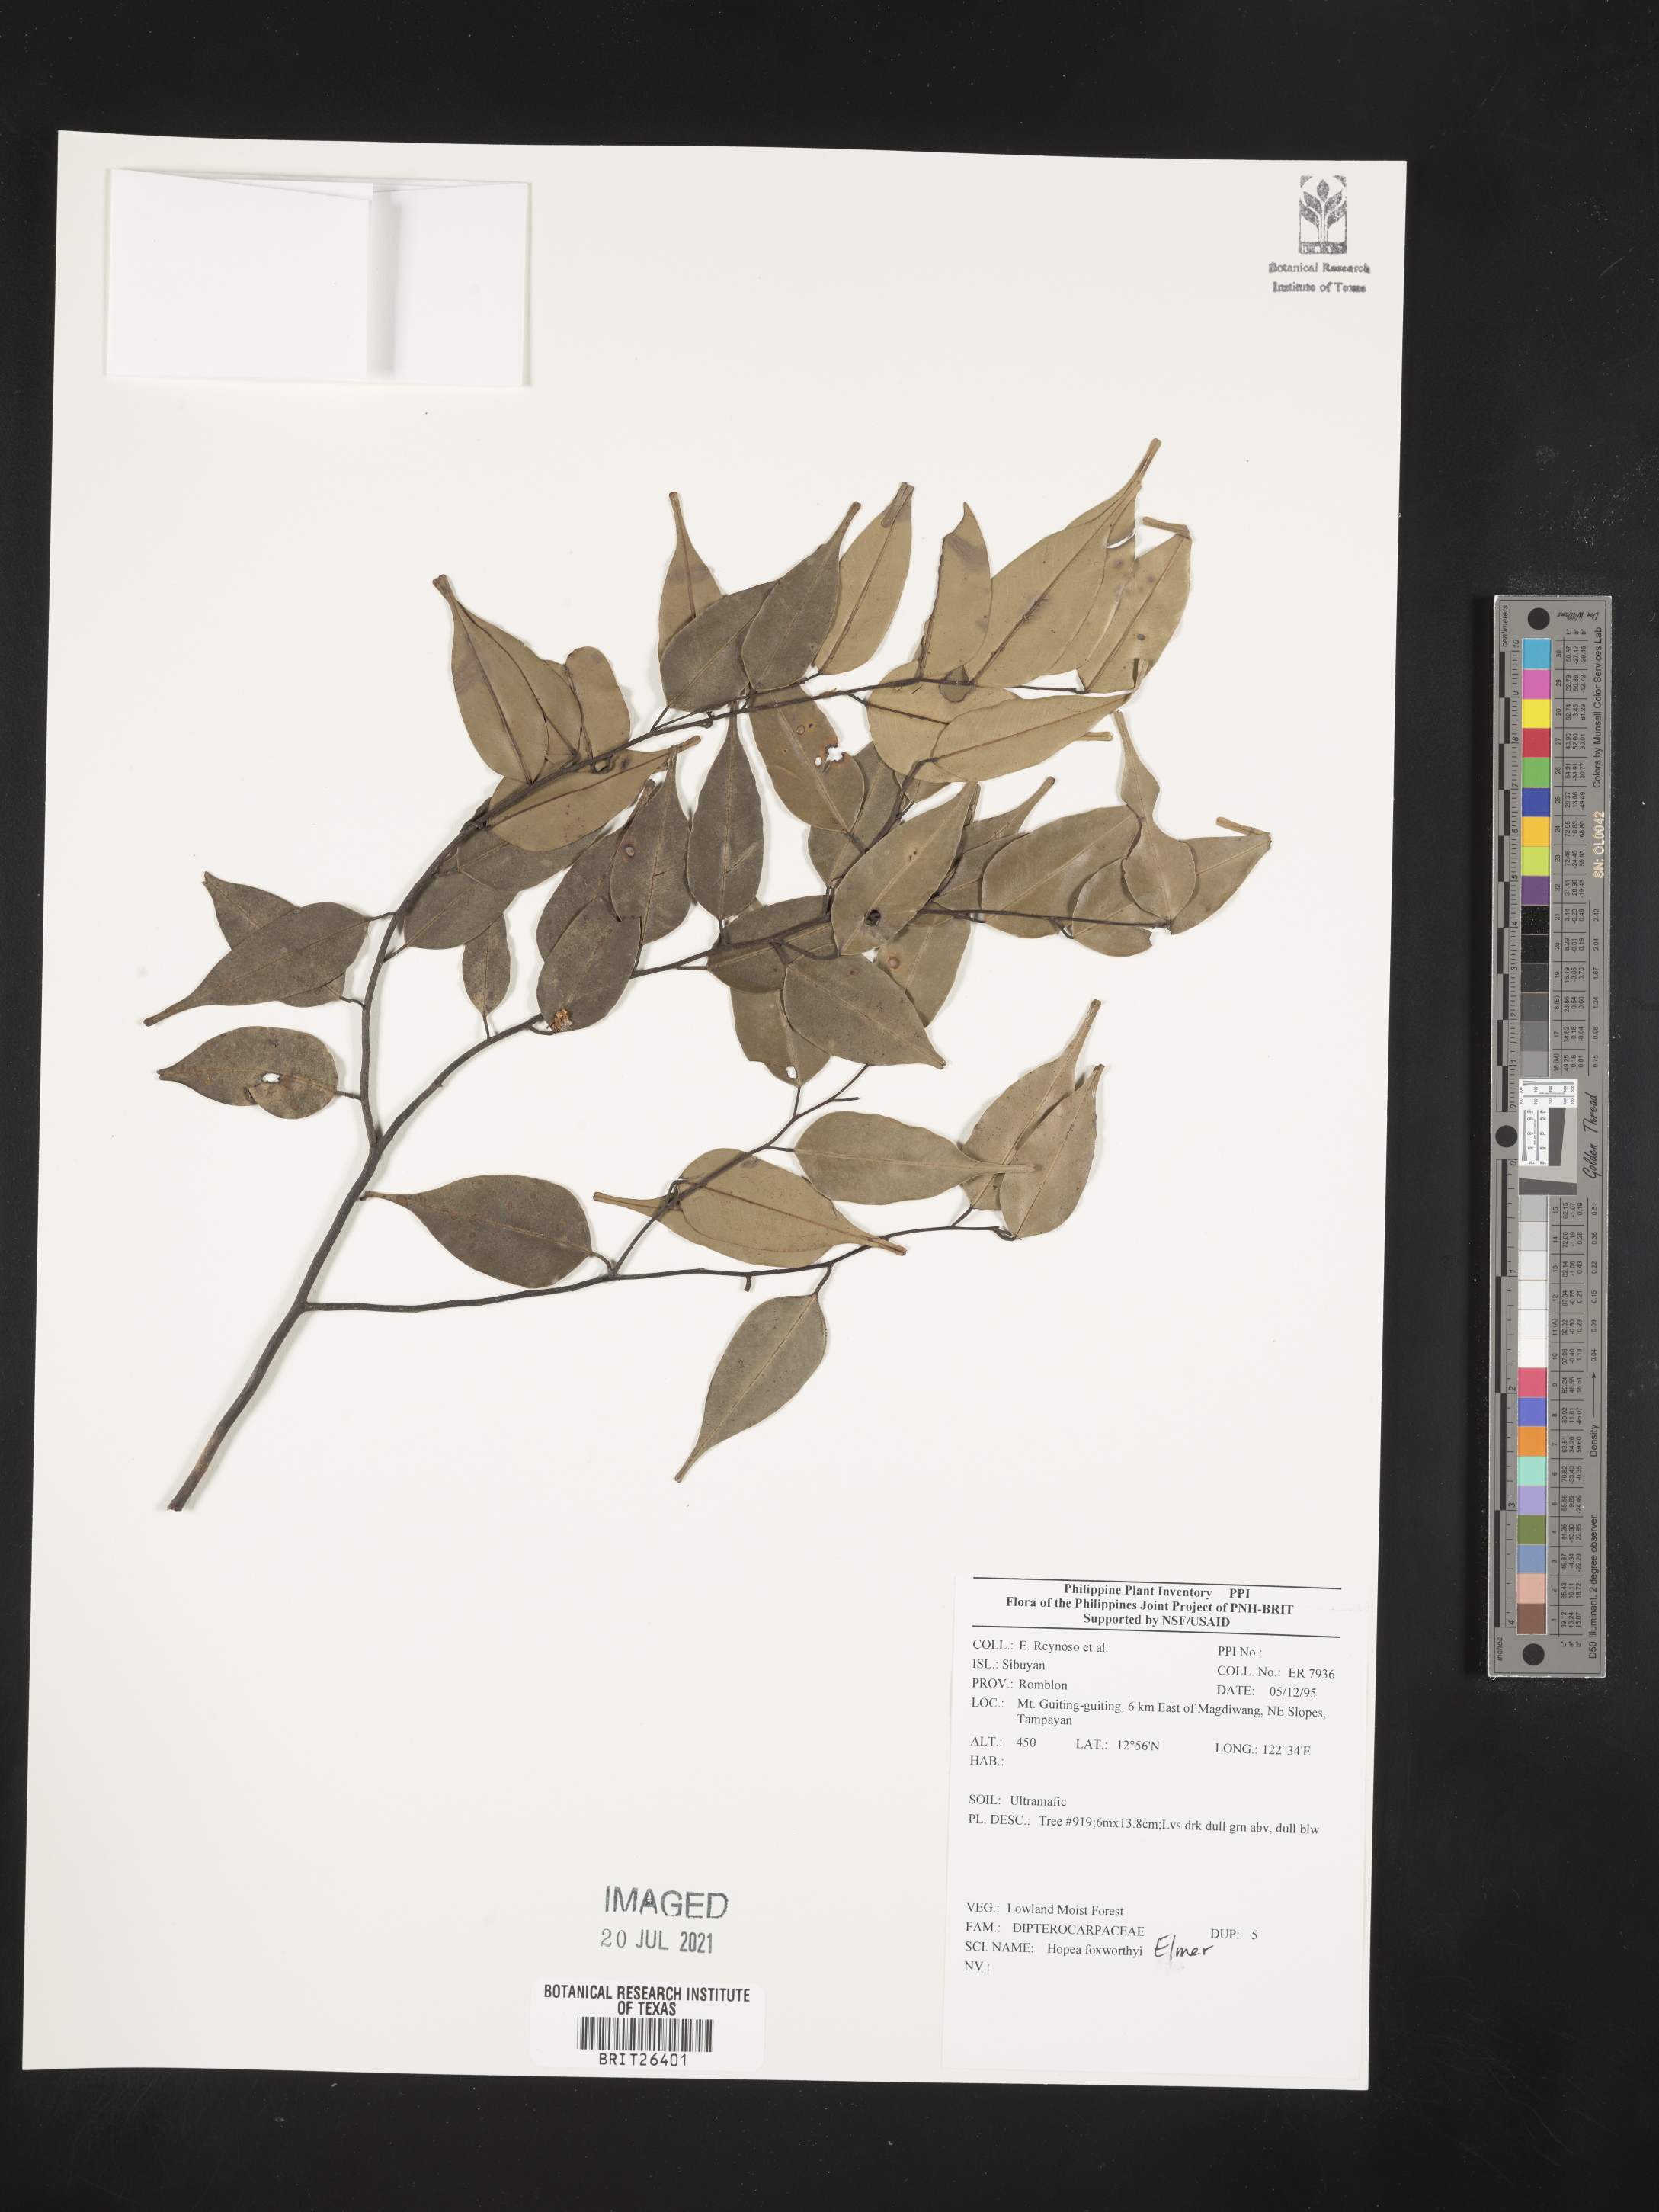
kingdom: Plantae
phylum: Tracheophyta
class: Magnoliopsida
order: Malvales
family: Dipterocarpaceae
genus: Hopea
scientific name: Hopea foxworthyi
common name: Dalingdingan
